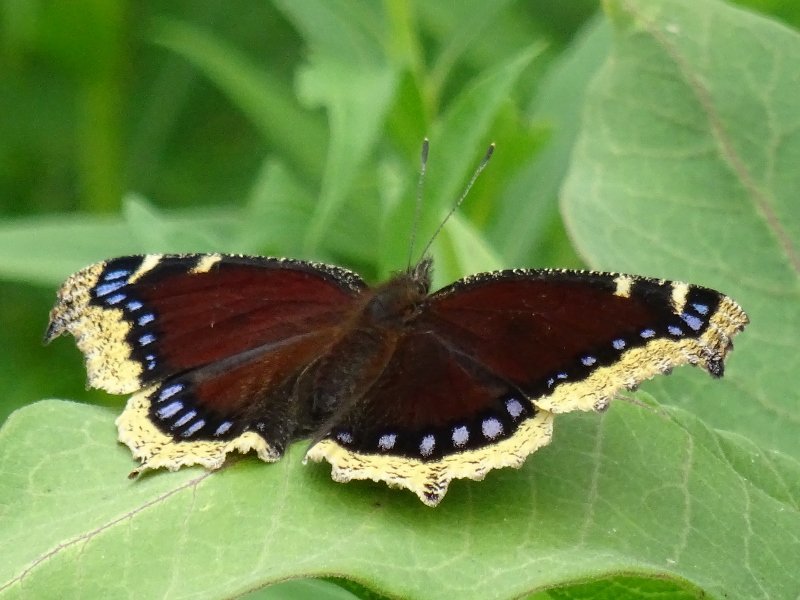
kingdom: Animalia
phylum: Arthropoda
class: Insecta
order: Lepidoptera
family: Nymphalidae
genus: Nymphalis
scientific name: Nymphalis antiopa
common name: Mourning Cloak
